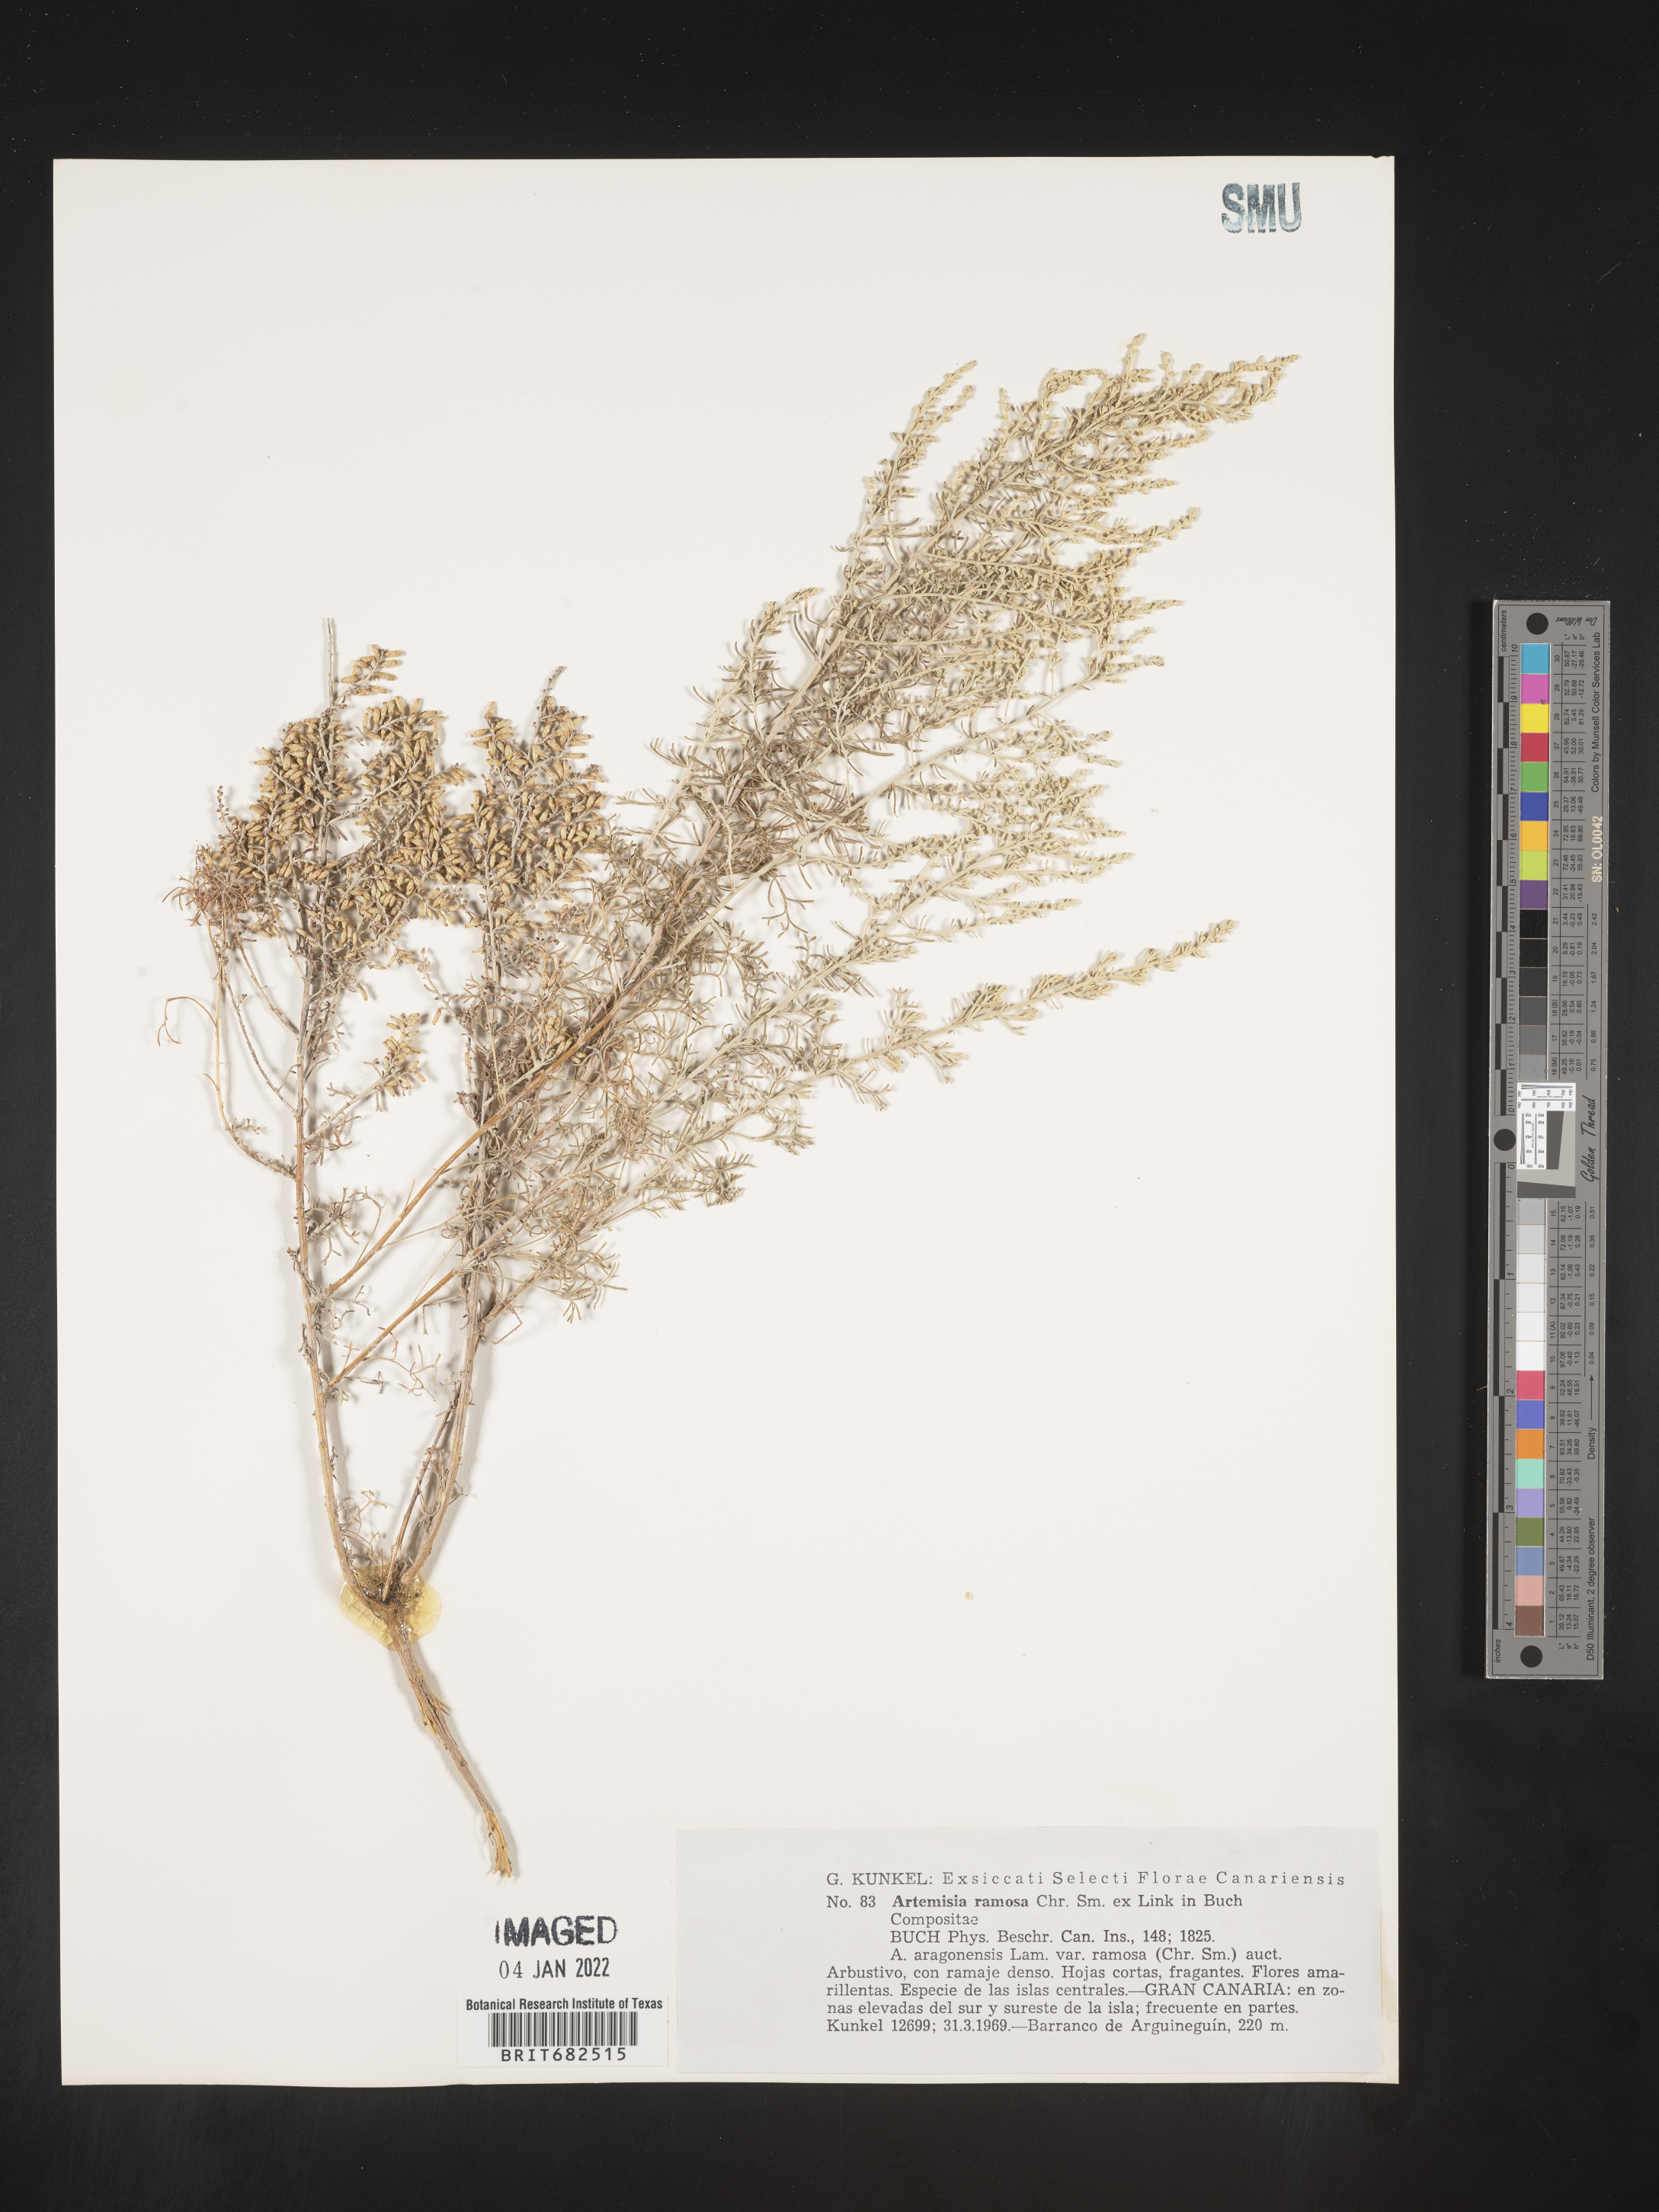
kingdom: Plantae
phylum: Tracheophyta
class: Magnoliopsida
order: Asterales
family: Asteraceae
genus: Artemisia
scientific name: Artemisia
